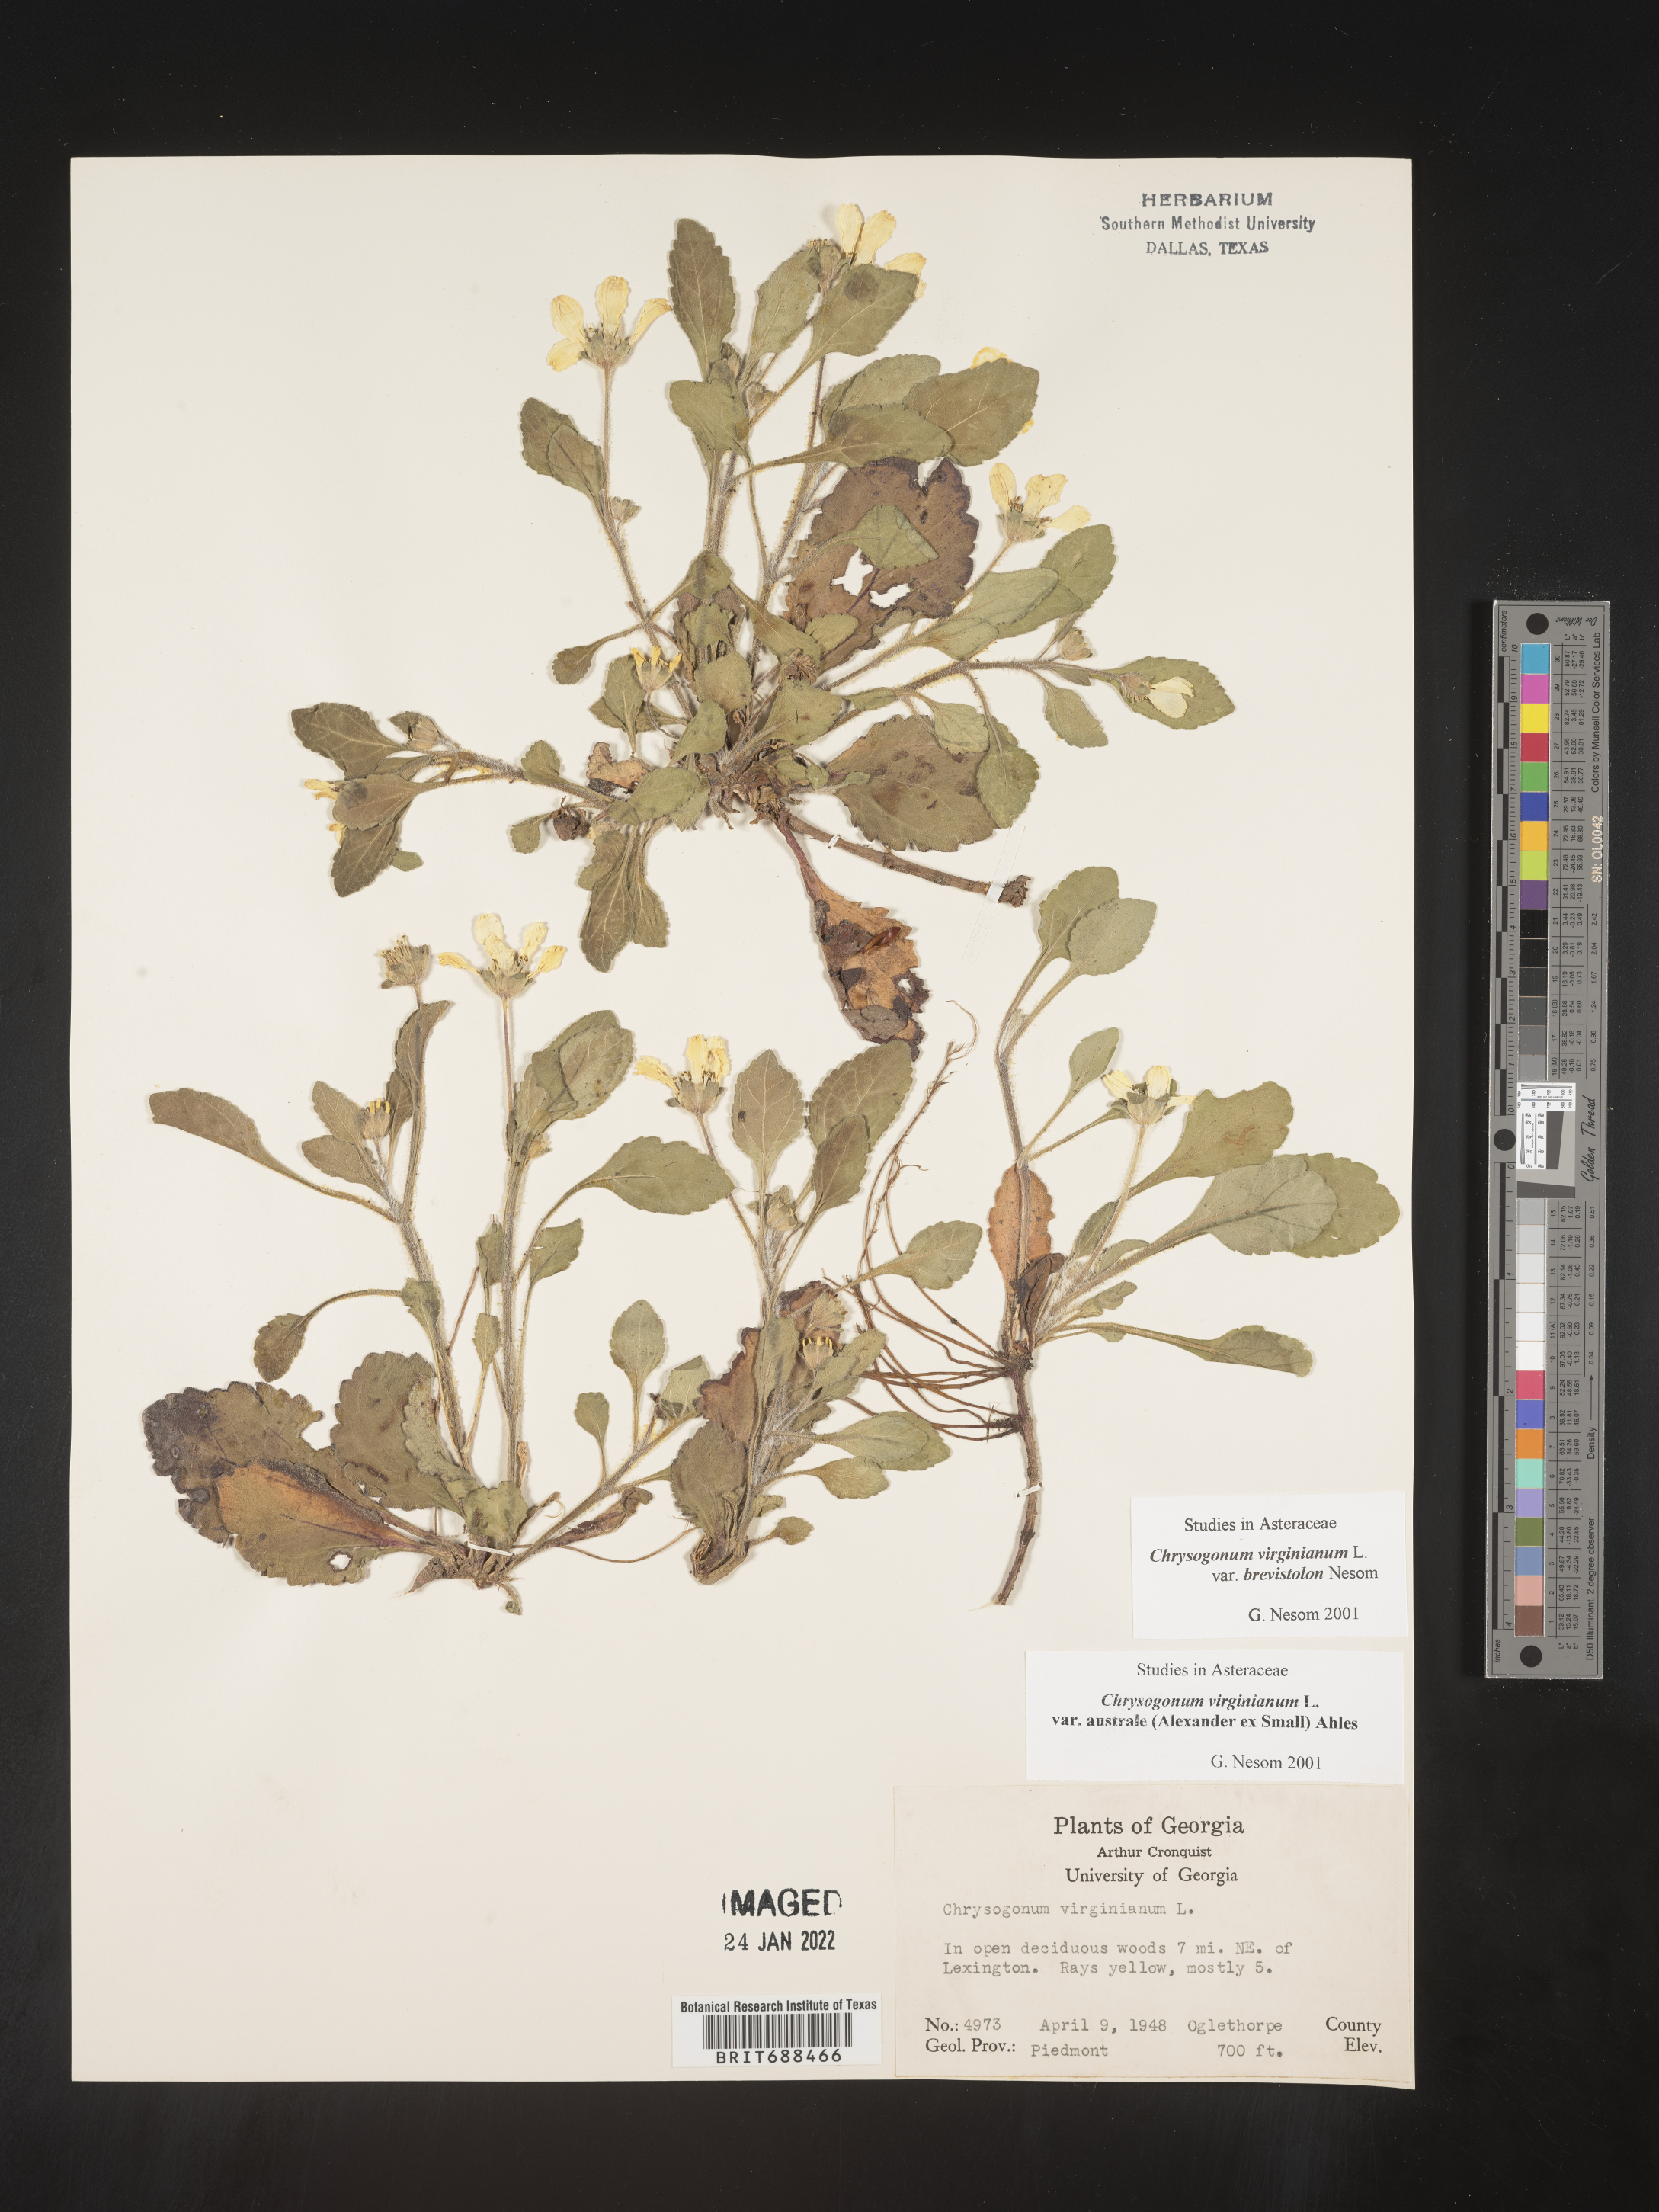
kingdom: Plantae
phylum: Tracheophyta
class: Magnoliopsida
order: Asterales
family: Asteraceae
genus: Chrysogonum
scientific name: Chrysogonum virginianum
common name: Golden-knee
